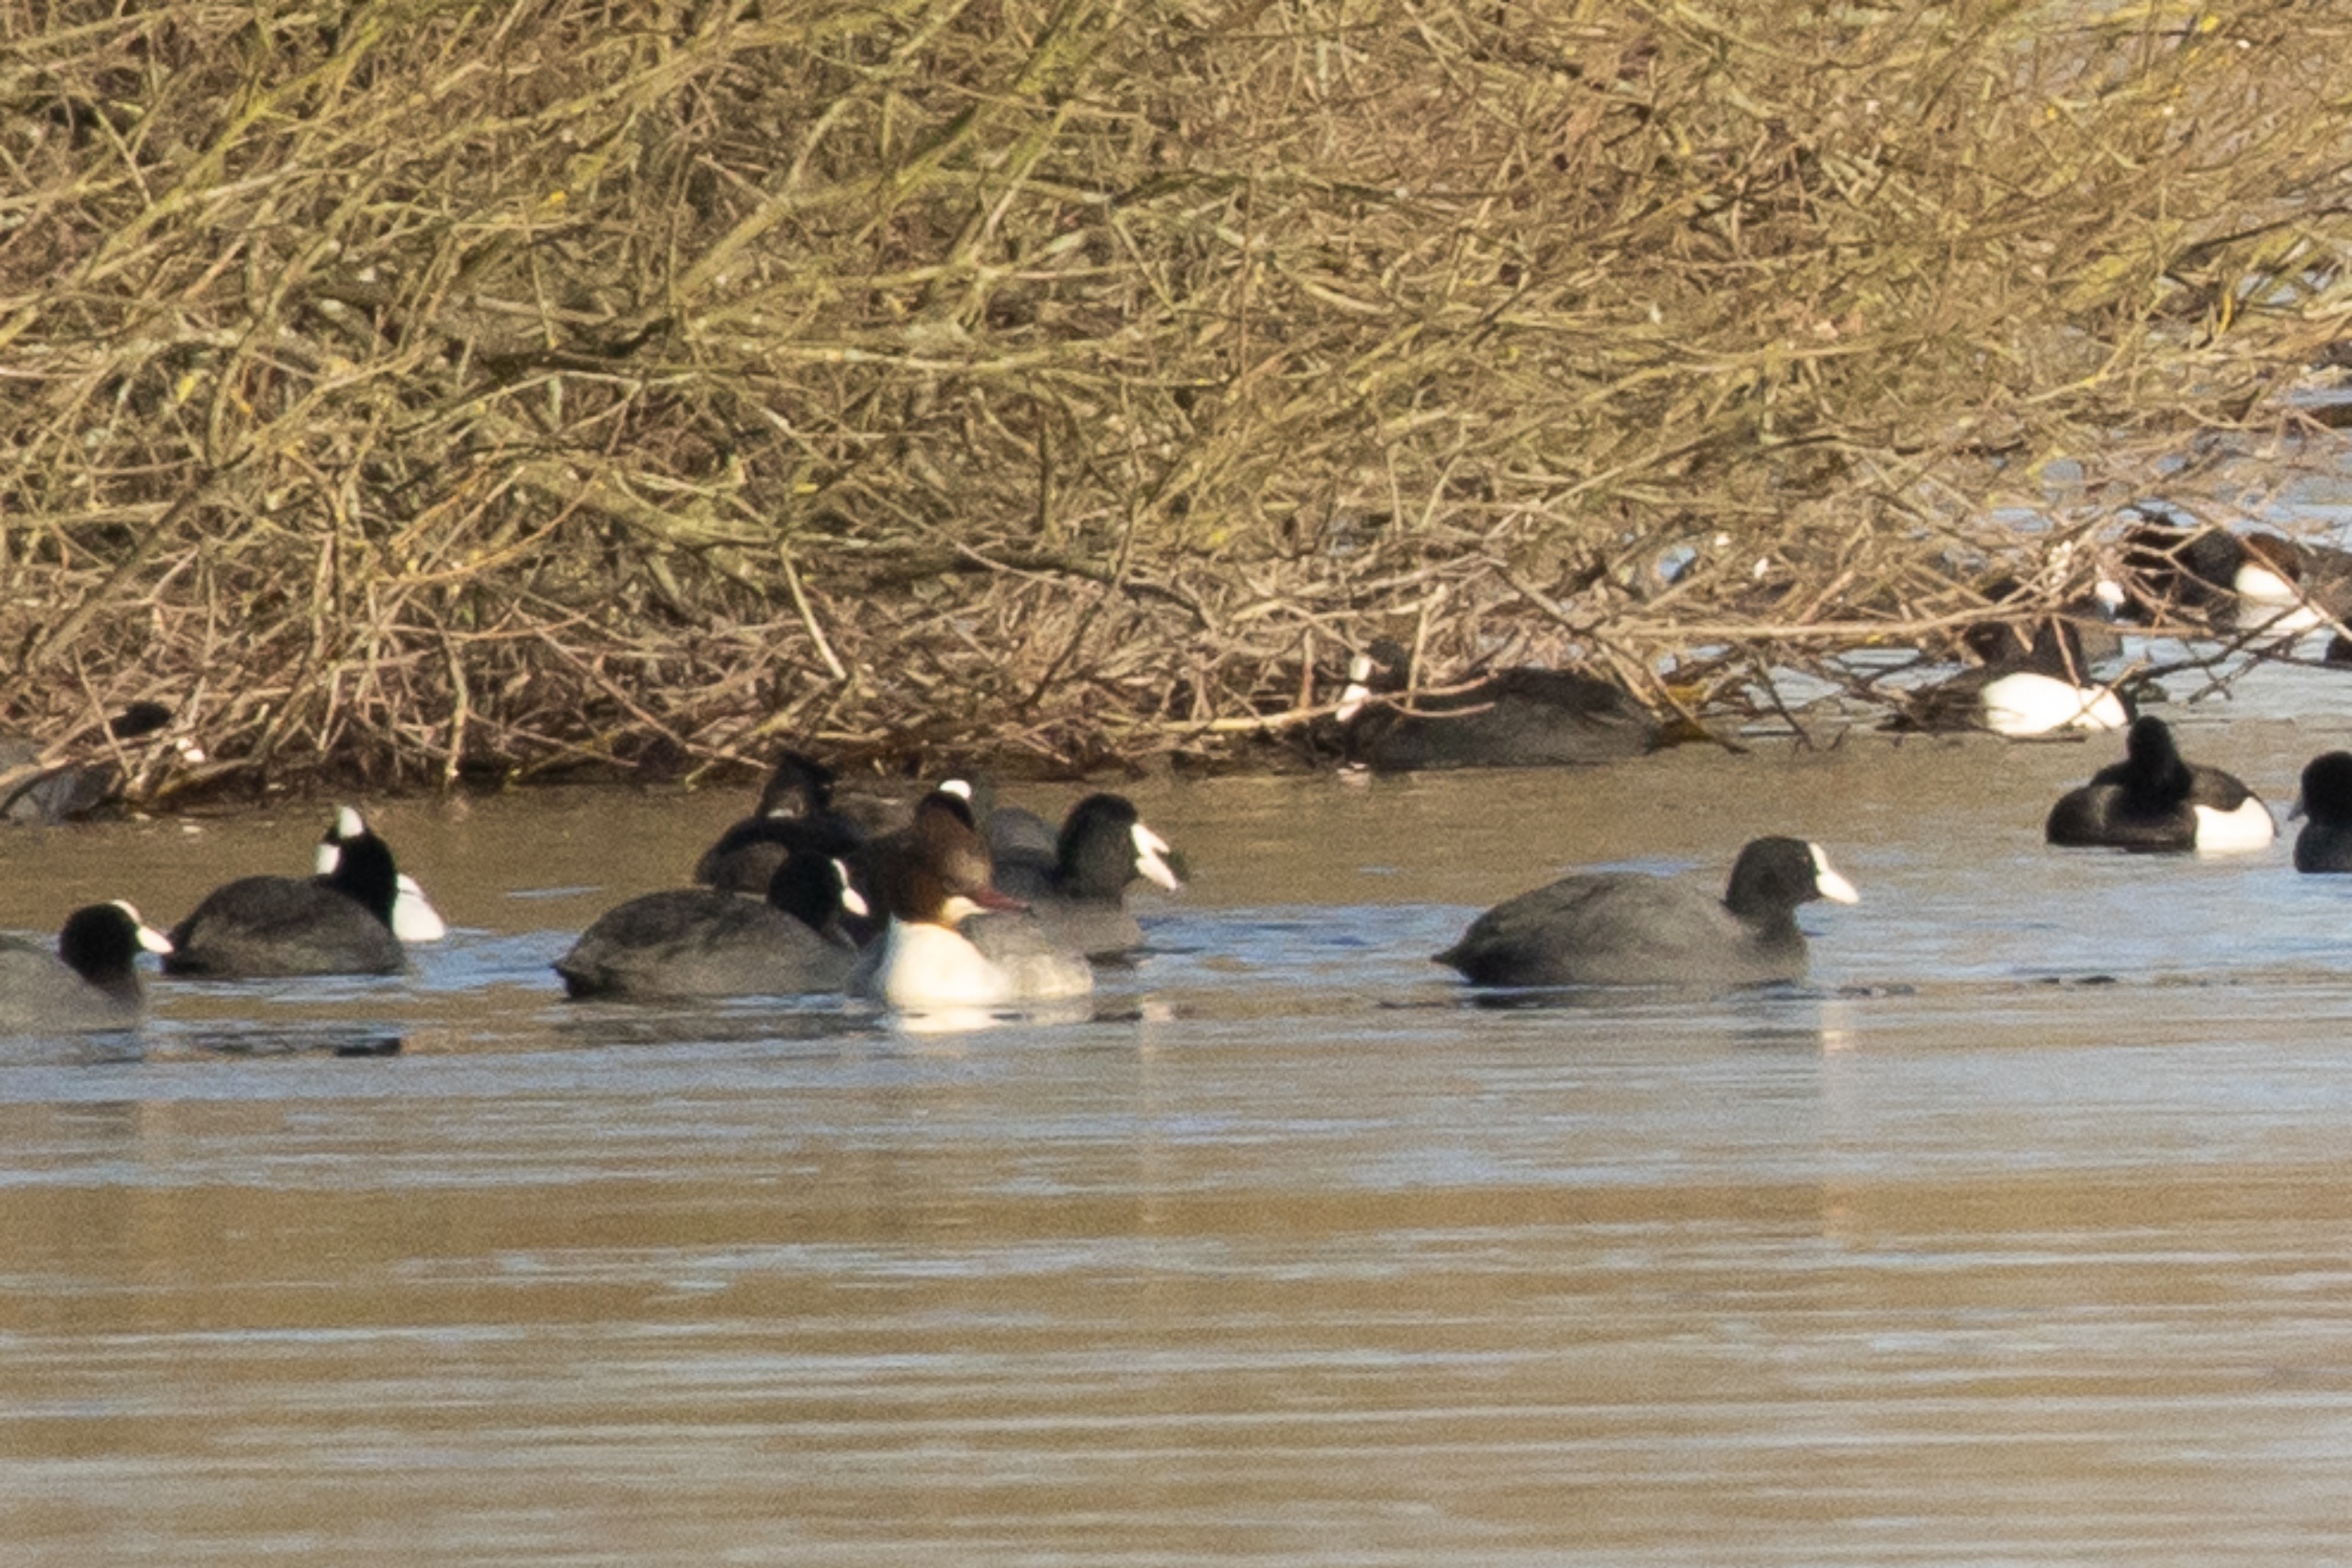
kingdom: Animalia
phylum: Chordata
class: Aves
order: Anseriformes
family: Anatidae
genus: Mergus
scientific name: Mergus merganser
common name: Stor skallesluger
